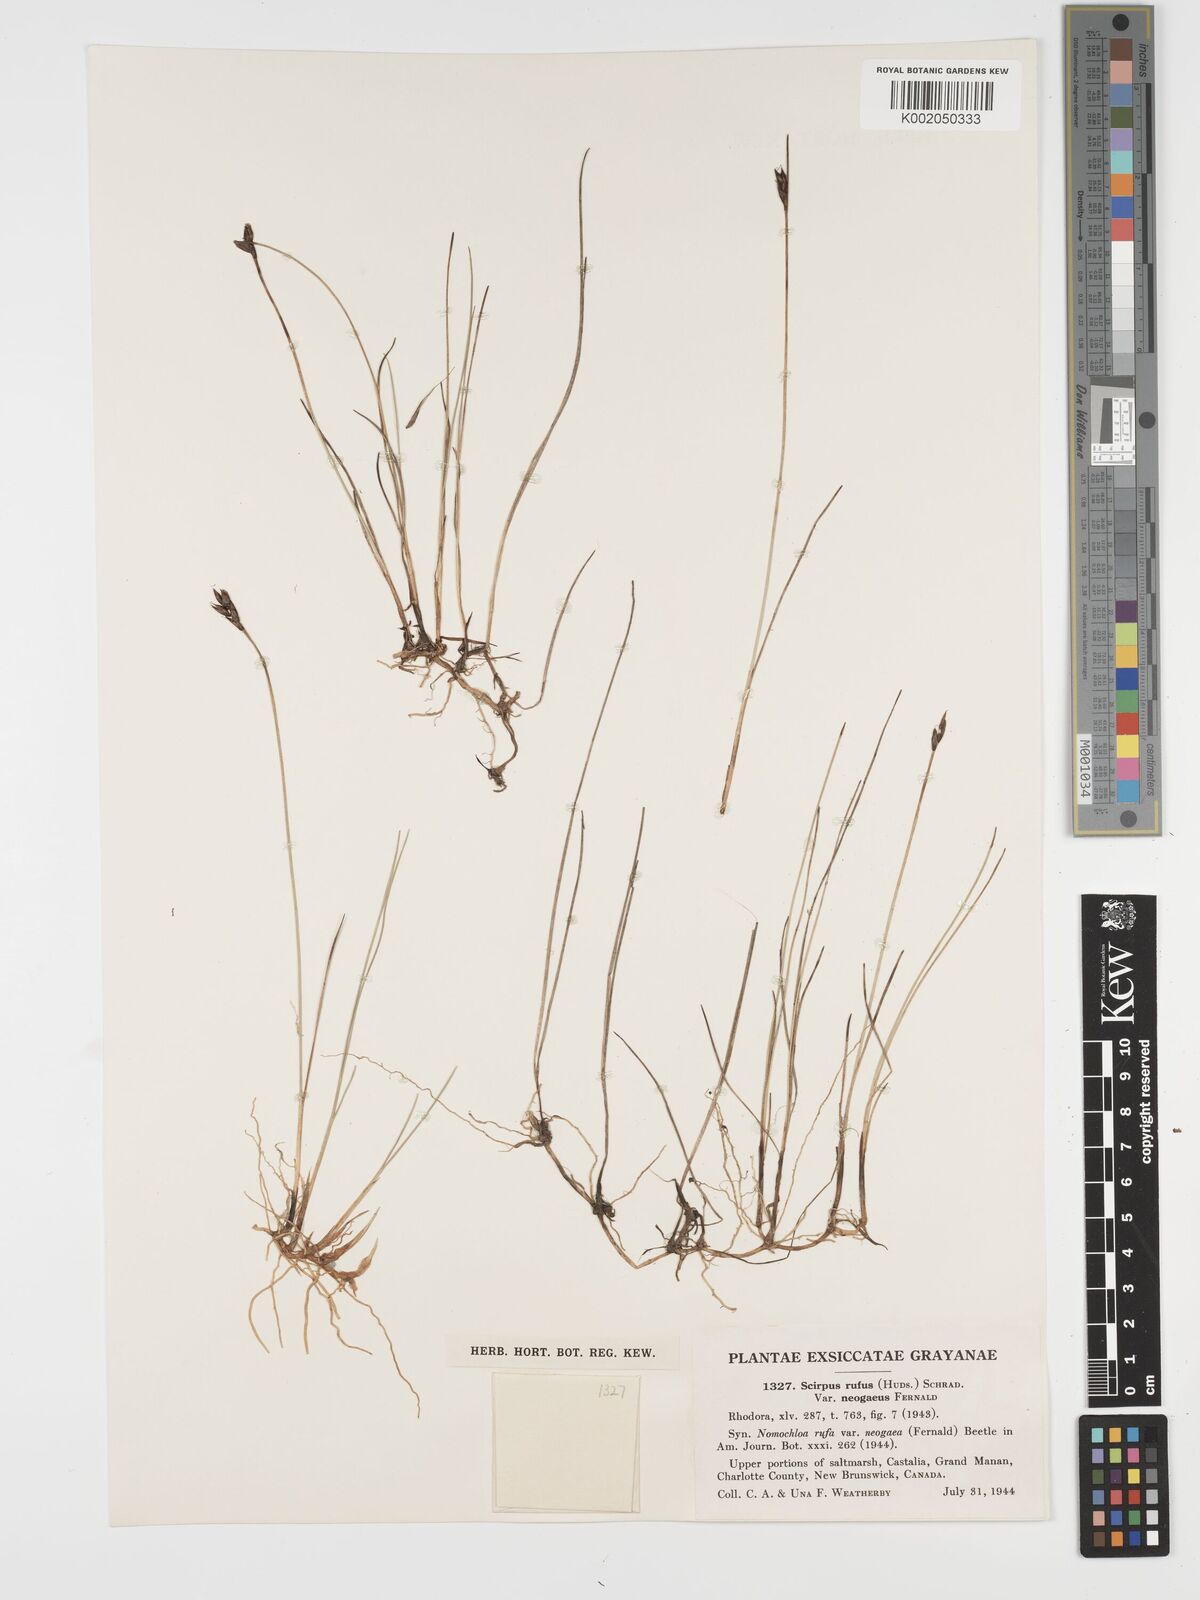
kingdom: Plantae
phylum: Tracheophyta
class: Liliopsida
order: Poales
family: Cyperaceae
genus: Blysmus
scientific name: Blysmus rufus
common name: Saltmarsh flat-sedge
